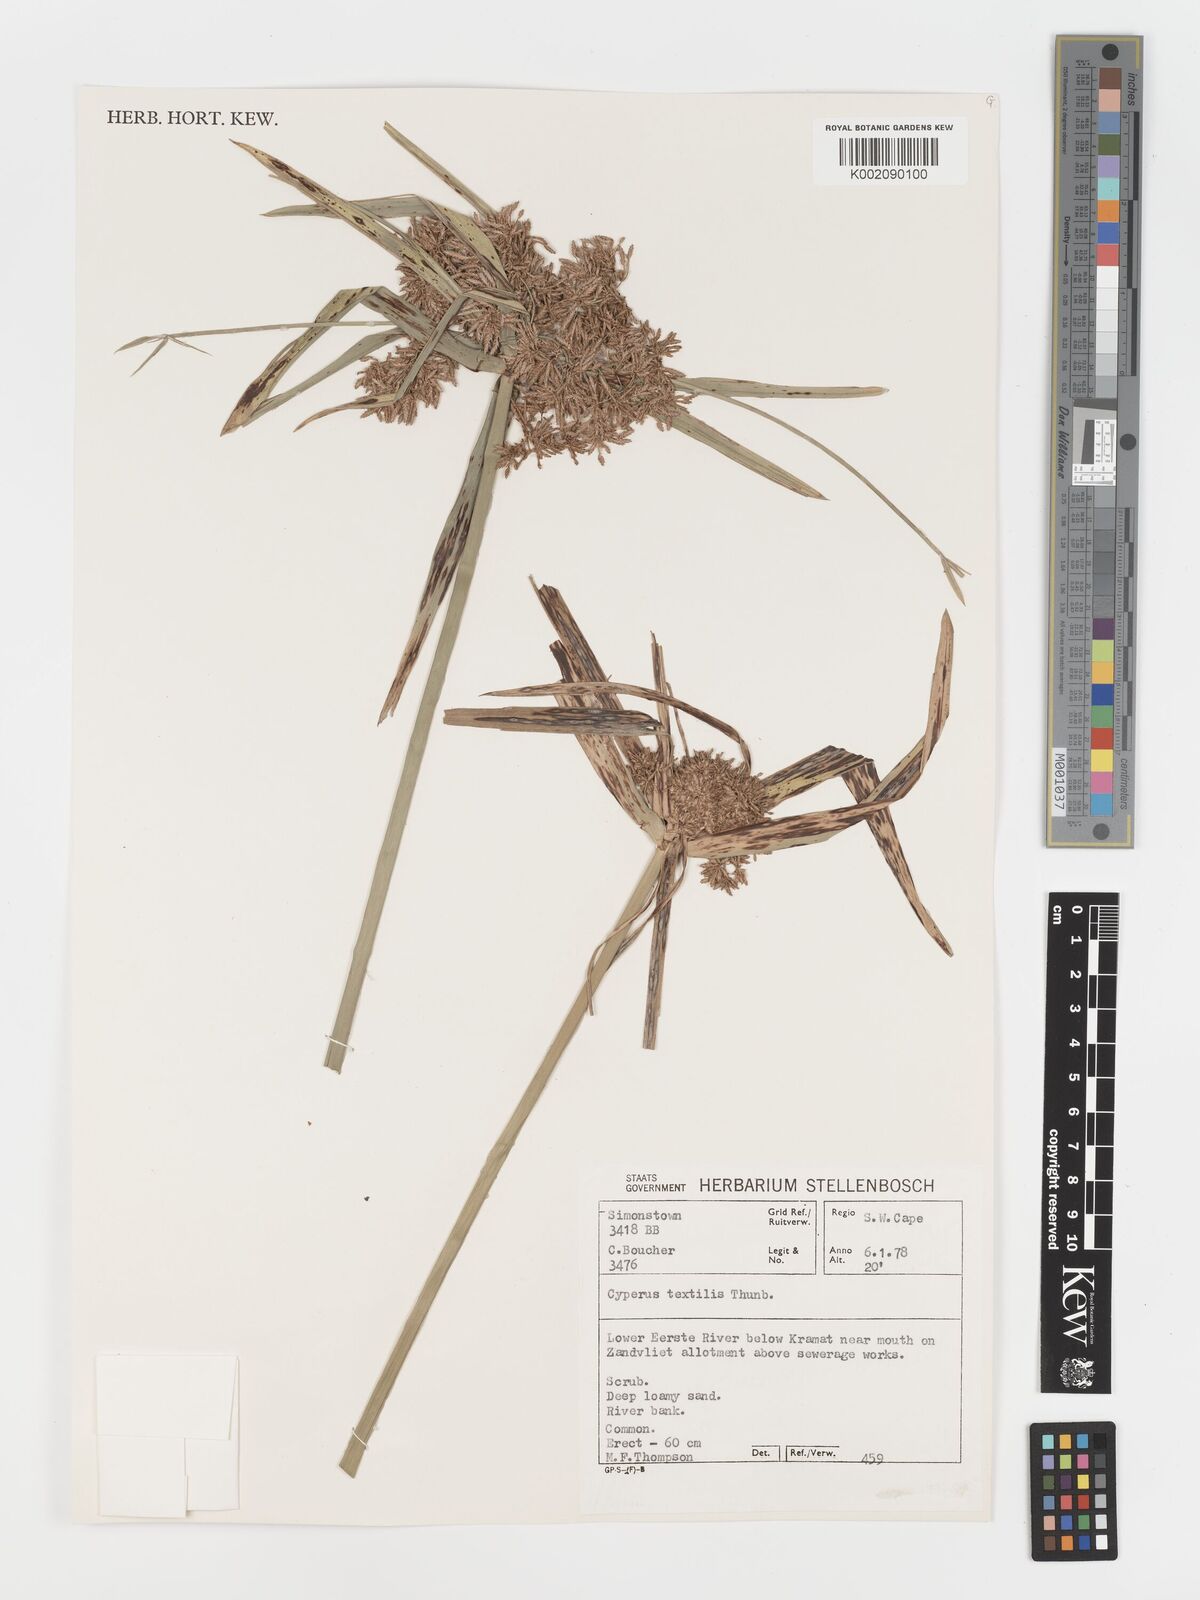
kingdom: Plantae
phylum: Tracheophyta
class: Liliopsida
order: Poales
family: Cyperaceae
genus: Cyperus
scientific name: Cyperus alternifolius
